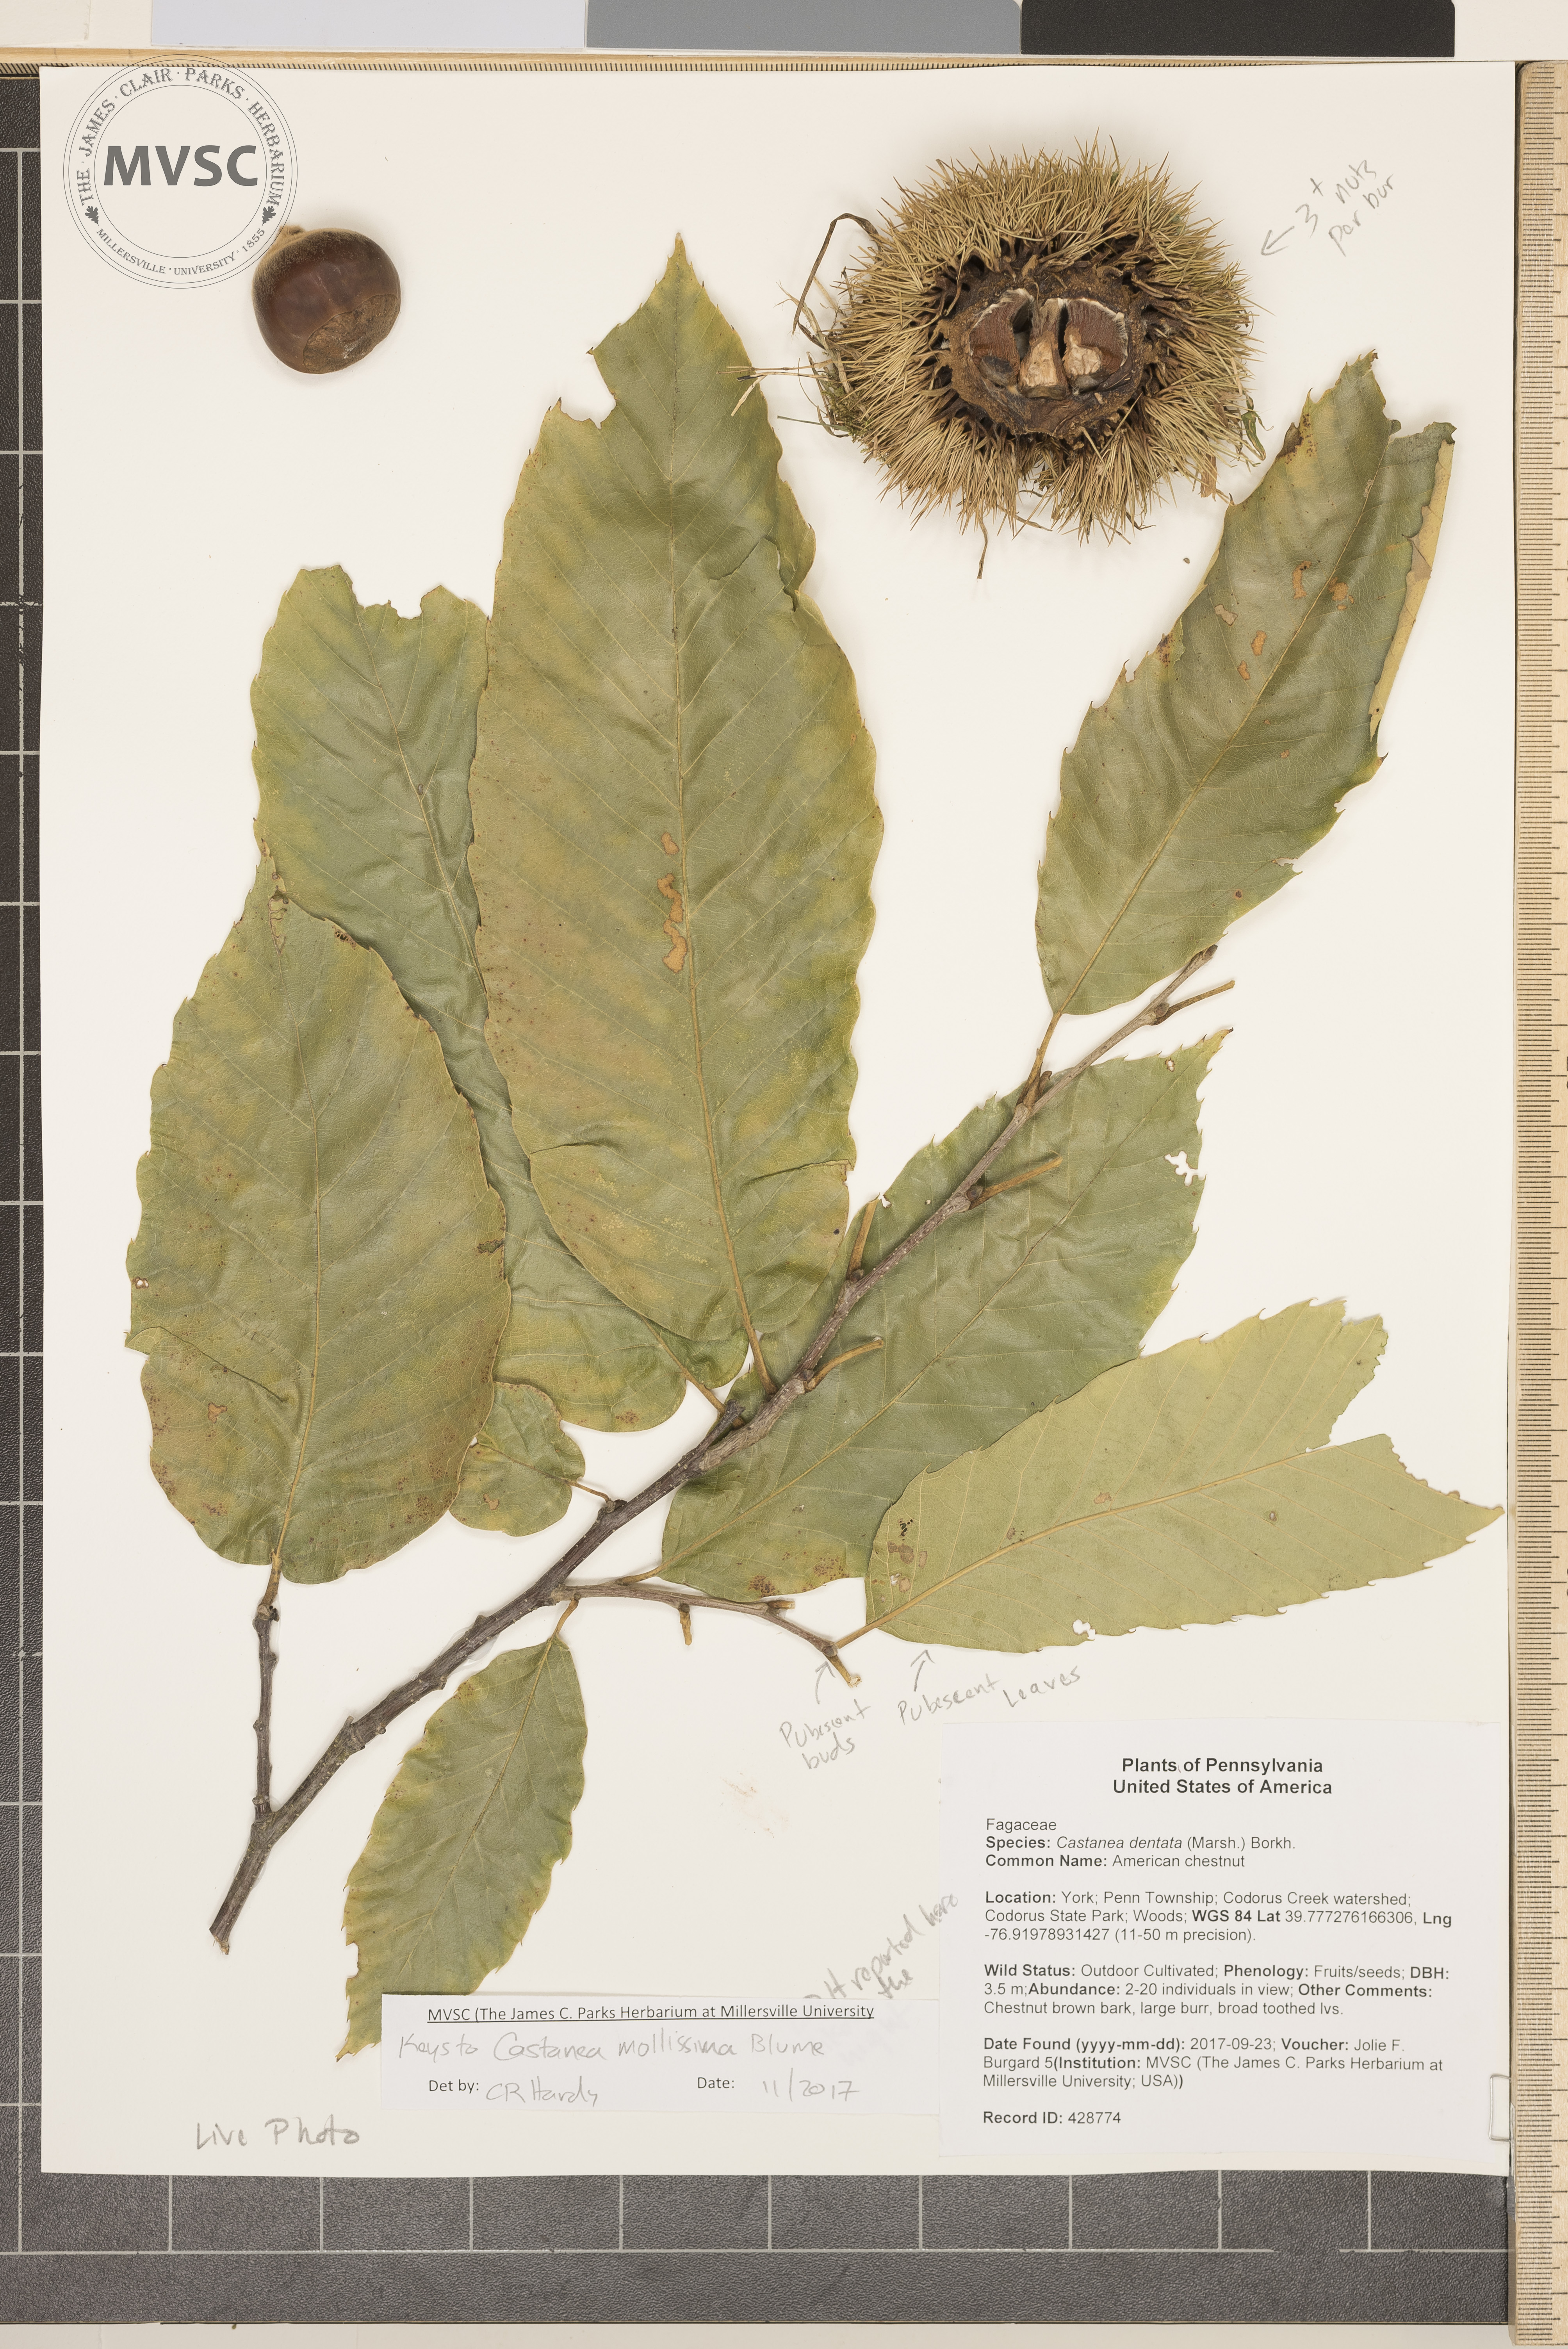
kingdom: Plantae
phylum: Tracheophyta
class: Magnoliopsida
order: Fagales
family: Fagaceae
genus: Castanea
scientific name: Castanea dentata
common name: American chestnut
